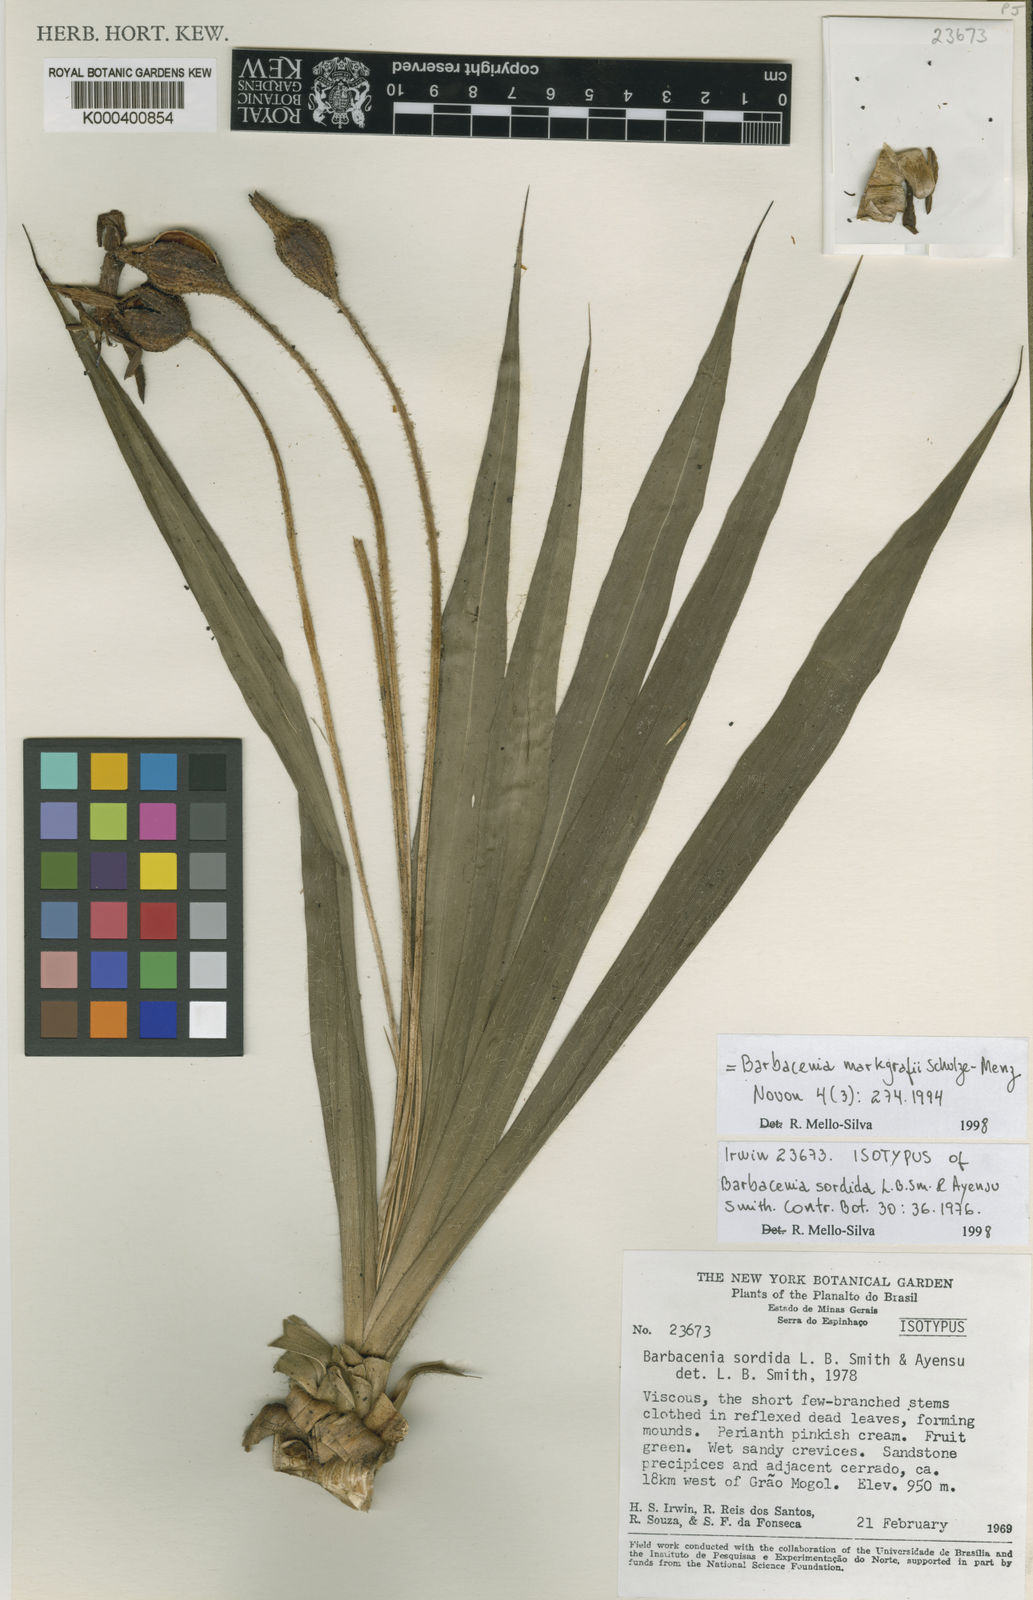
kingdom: Plantae
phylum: Tracheophyta
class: Liliopsida
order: Pandanales
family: Velloziaceae
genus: Barbacenia
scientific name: Barbacenia markgrafii
